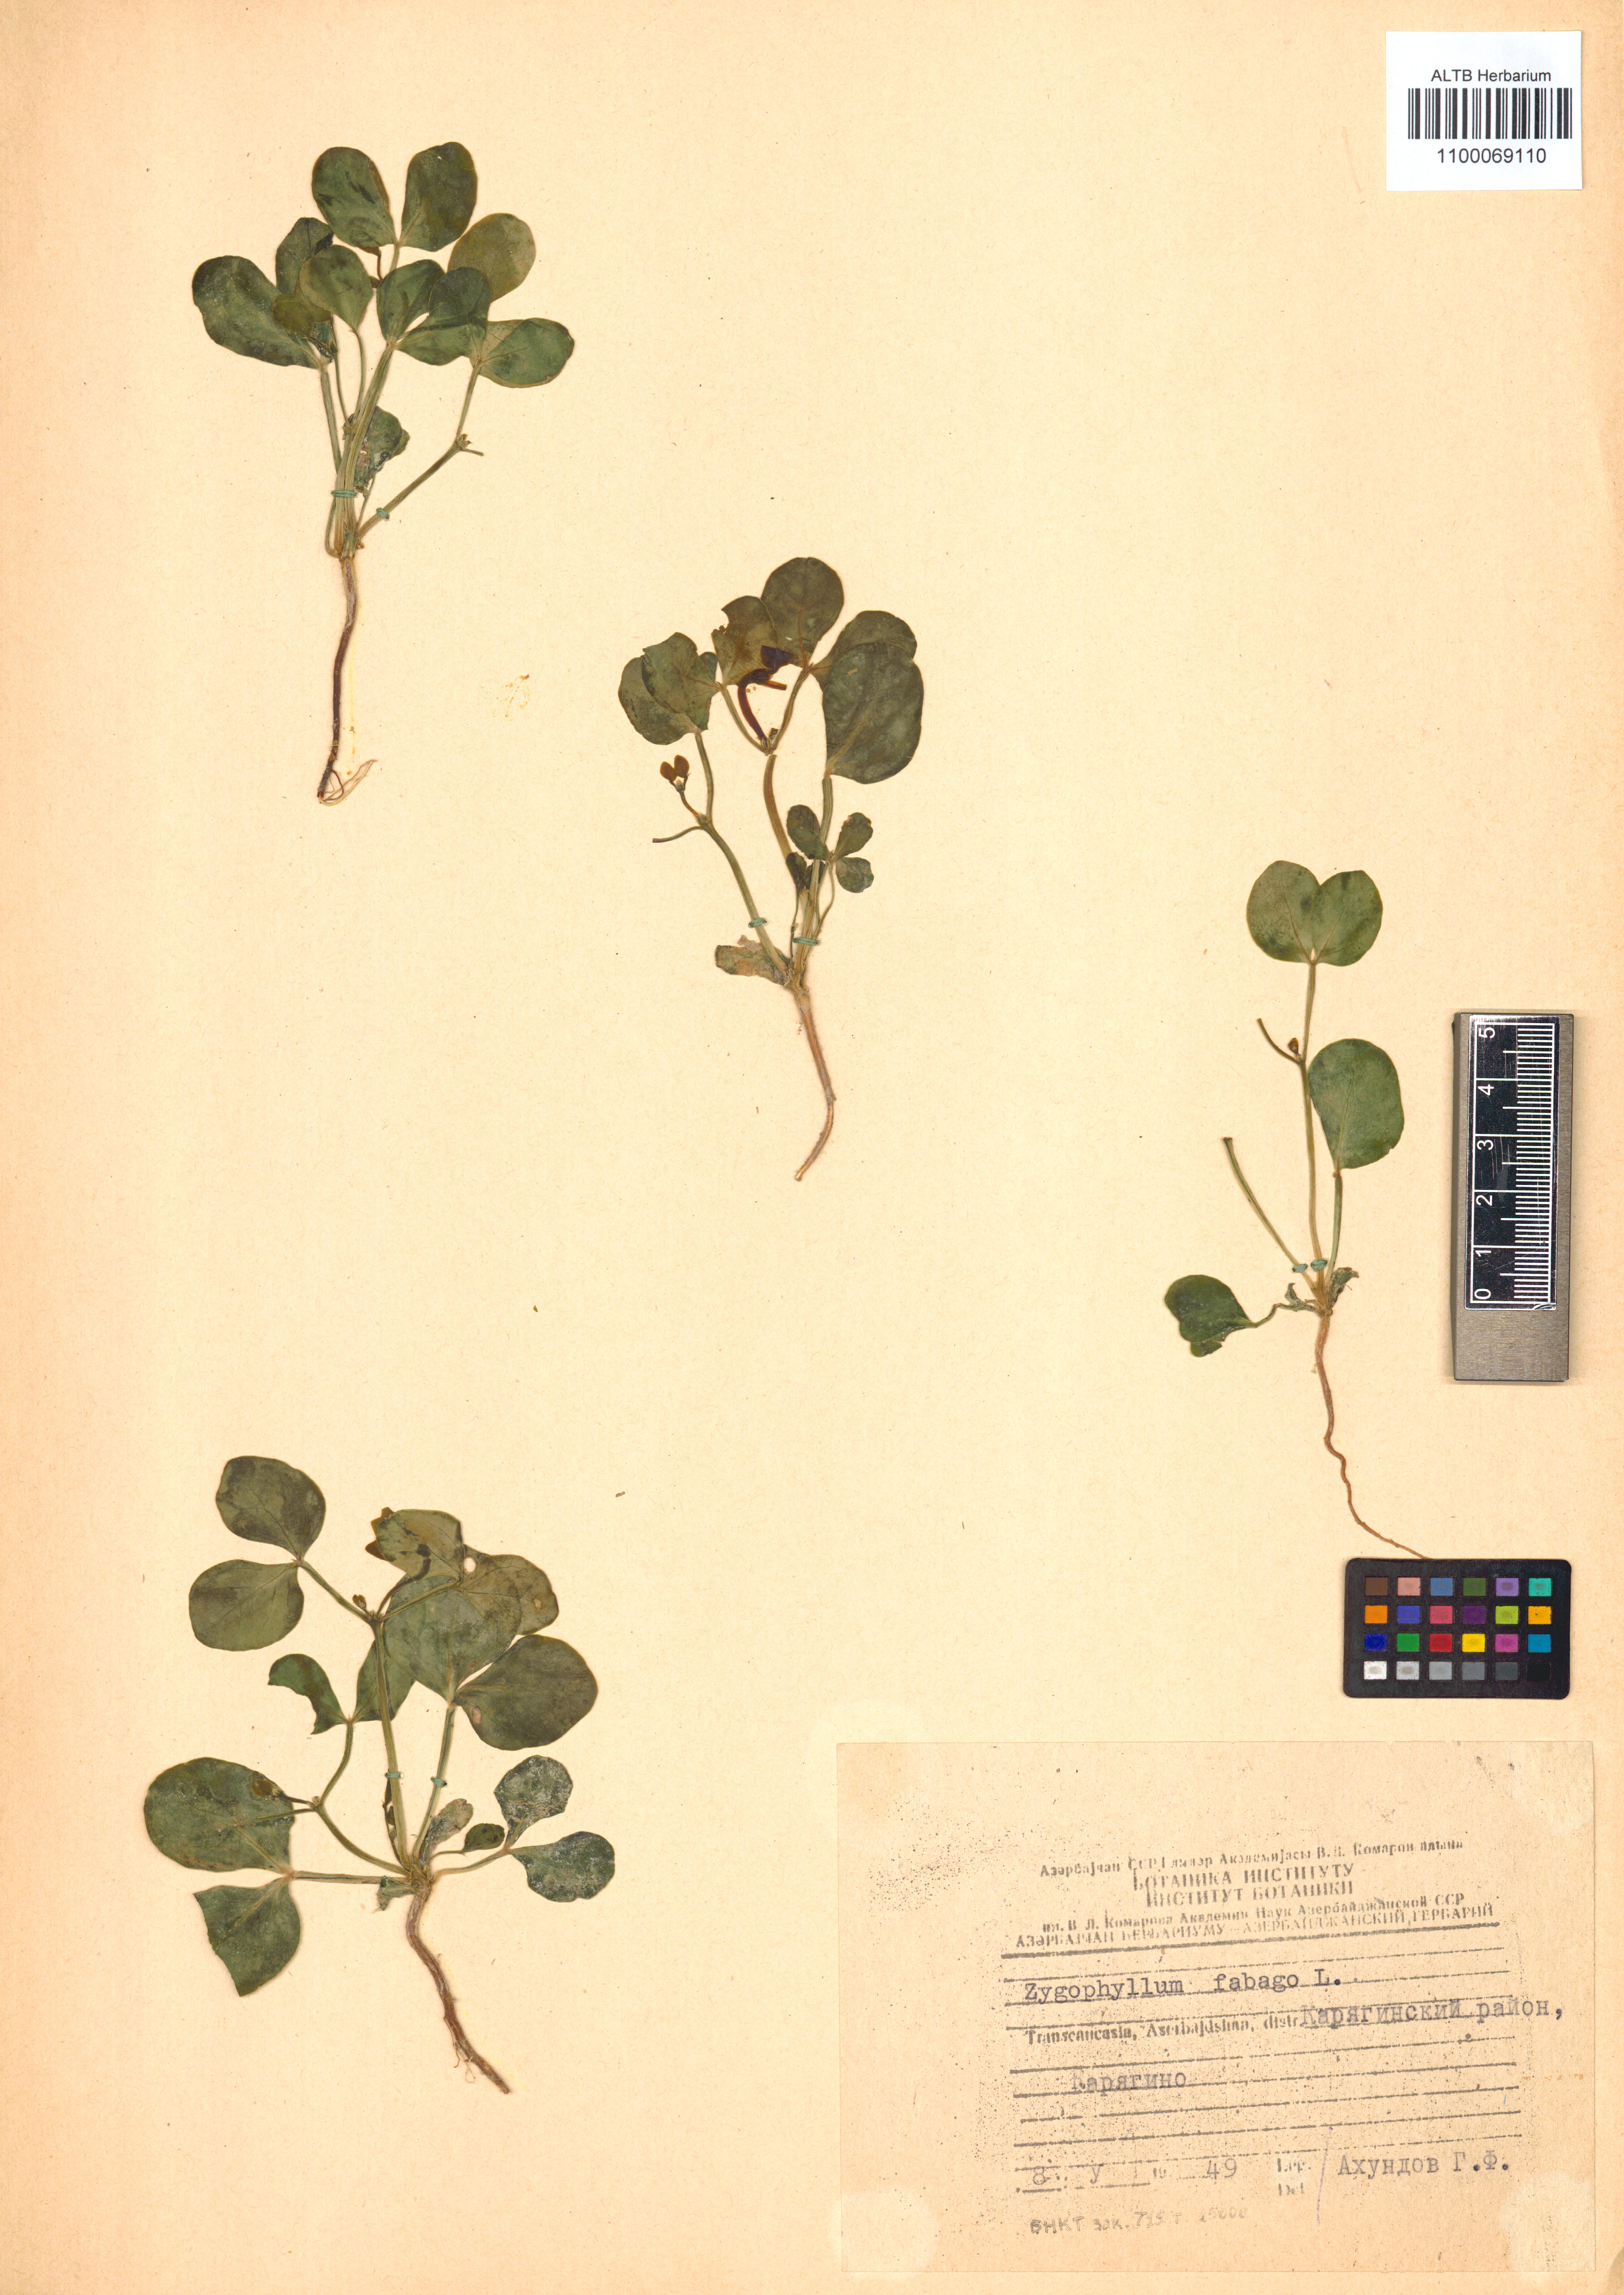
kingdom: Plantae
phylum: Tracheophyta
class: Magnoliopsida
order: Zygophyllales
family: Zygophyllaceae
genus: Zygophyllum
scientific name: Zygophyllum fabago
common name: Syrian beancaper
